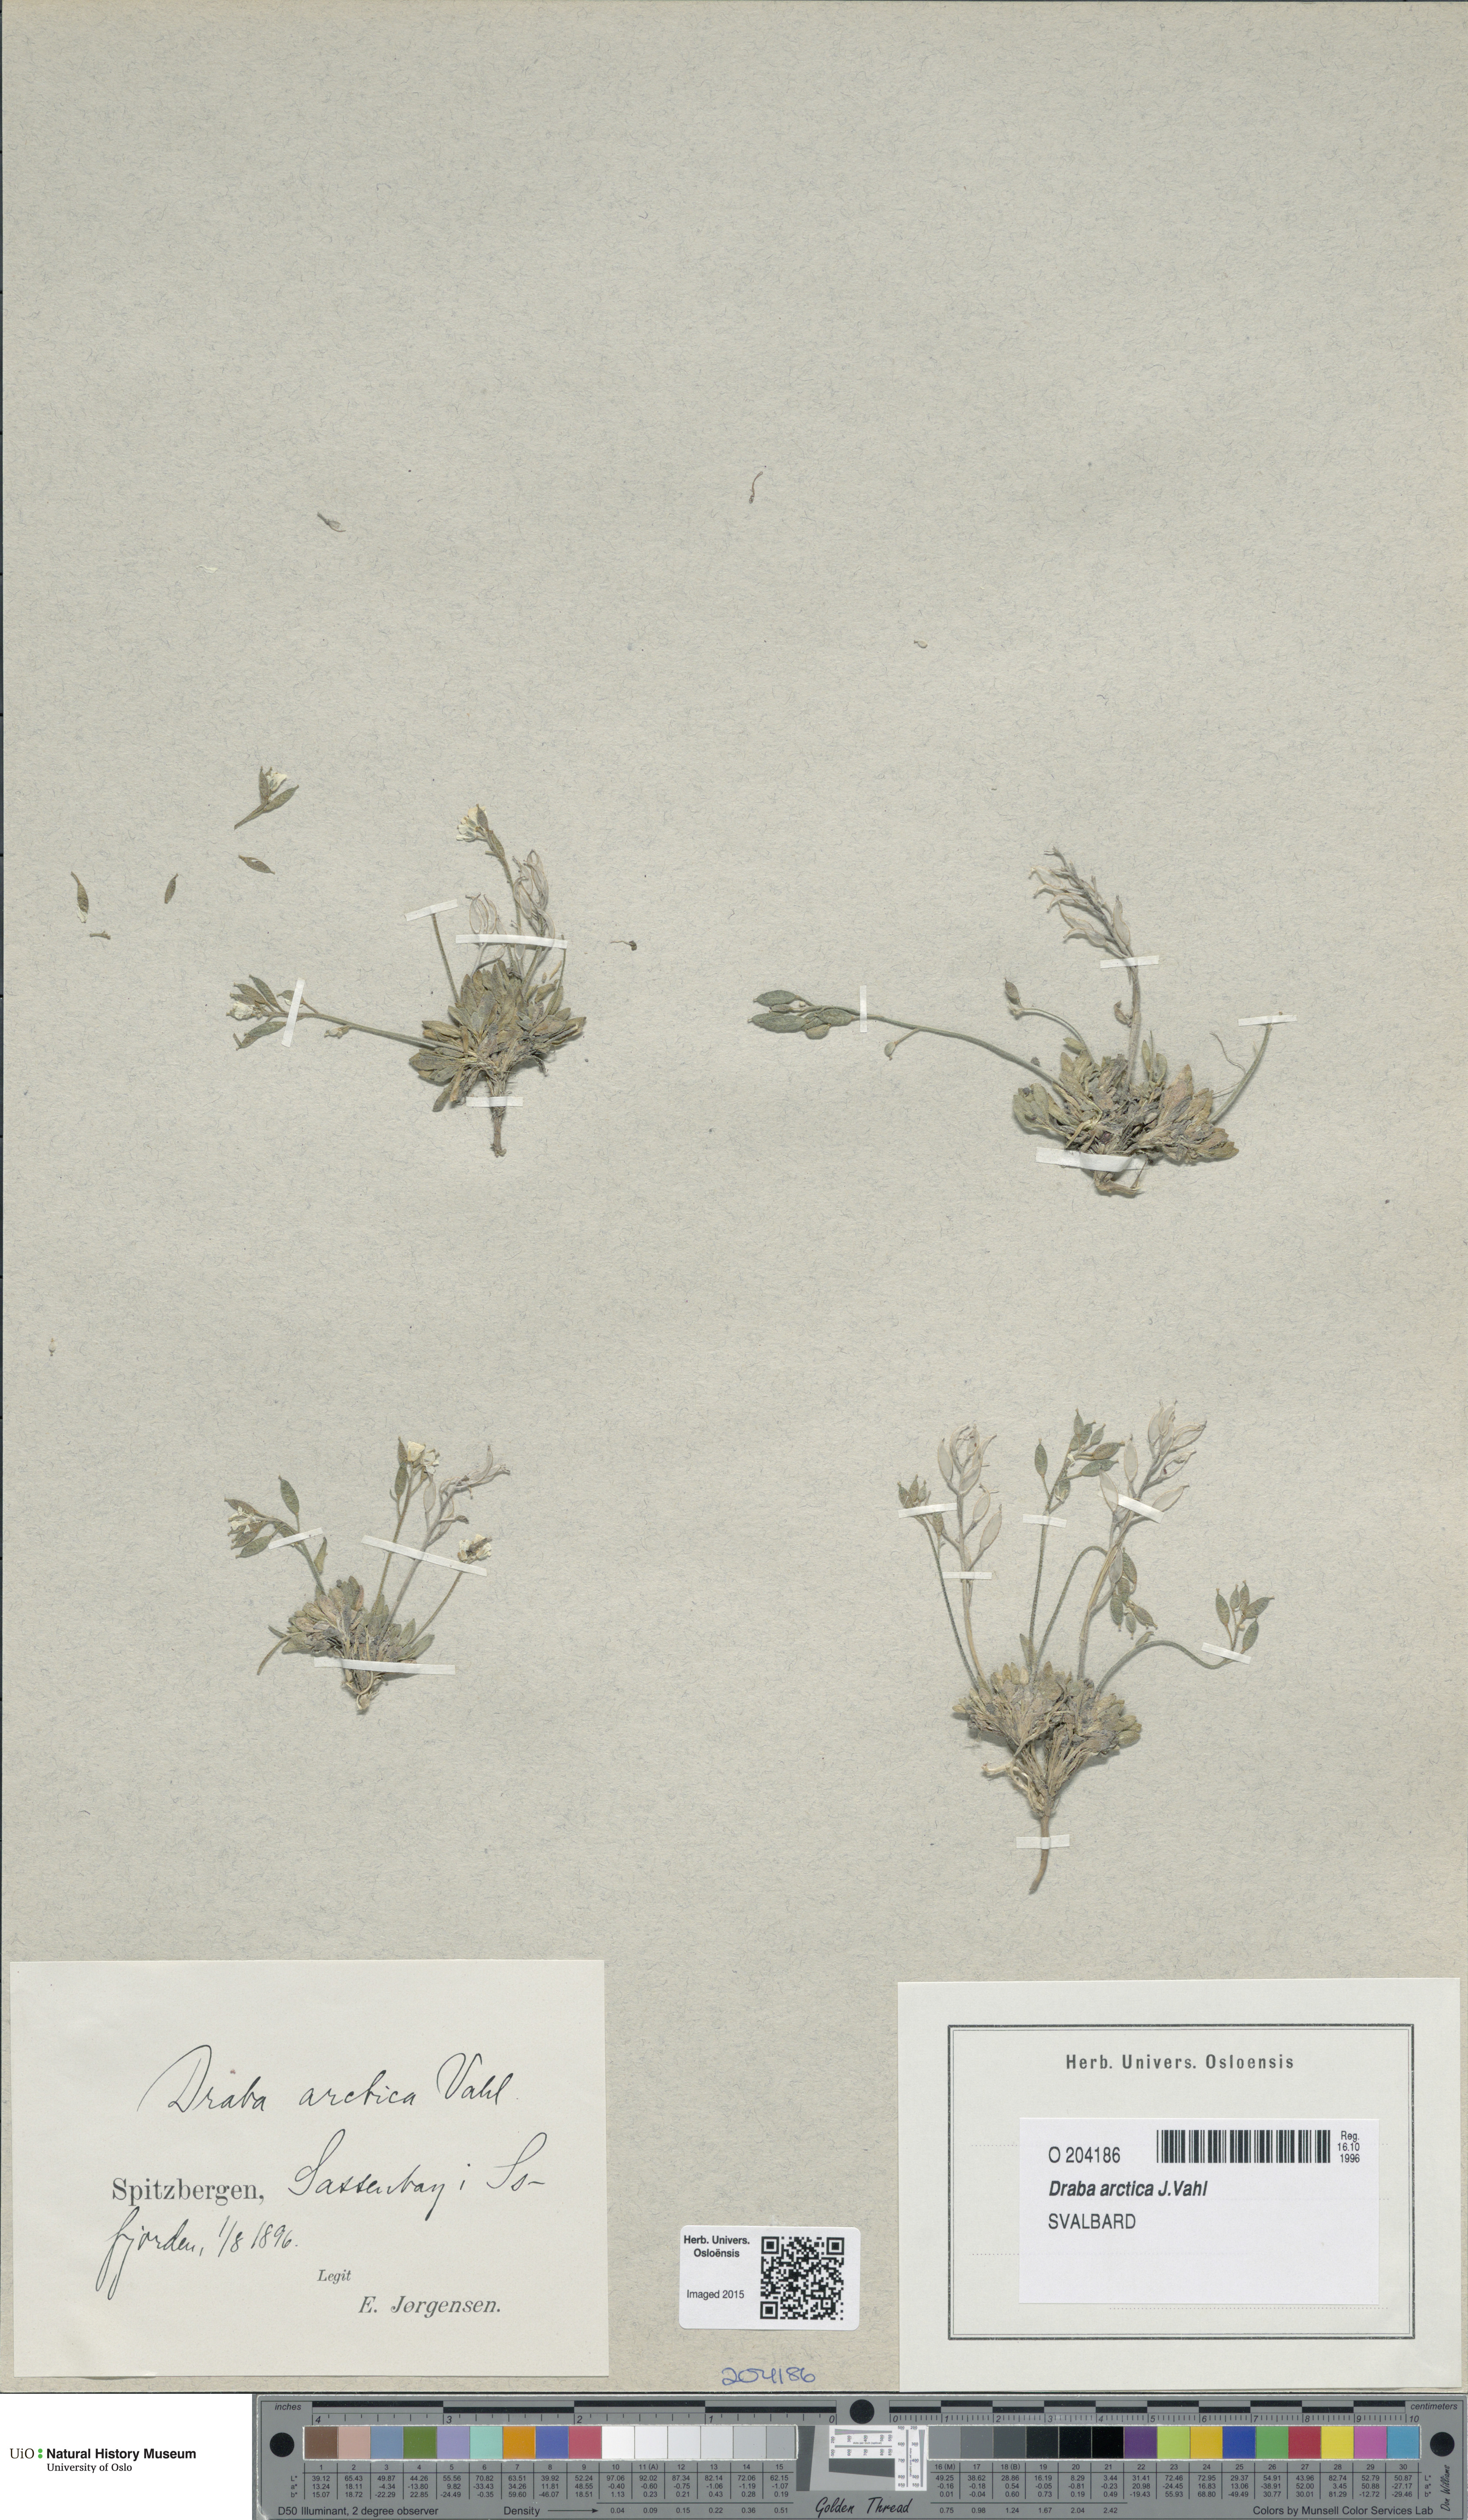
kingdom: Plantae
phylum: Tracheophyta
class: Magnoliopsida
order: Brassicales
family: Brassicaceae
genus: Draba
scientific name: Draba arctica
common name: Arctic draba
